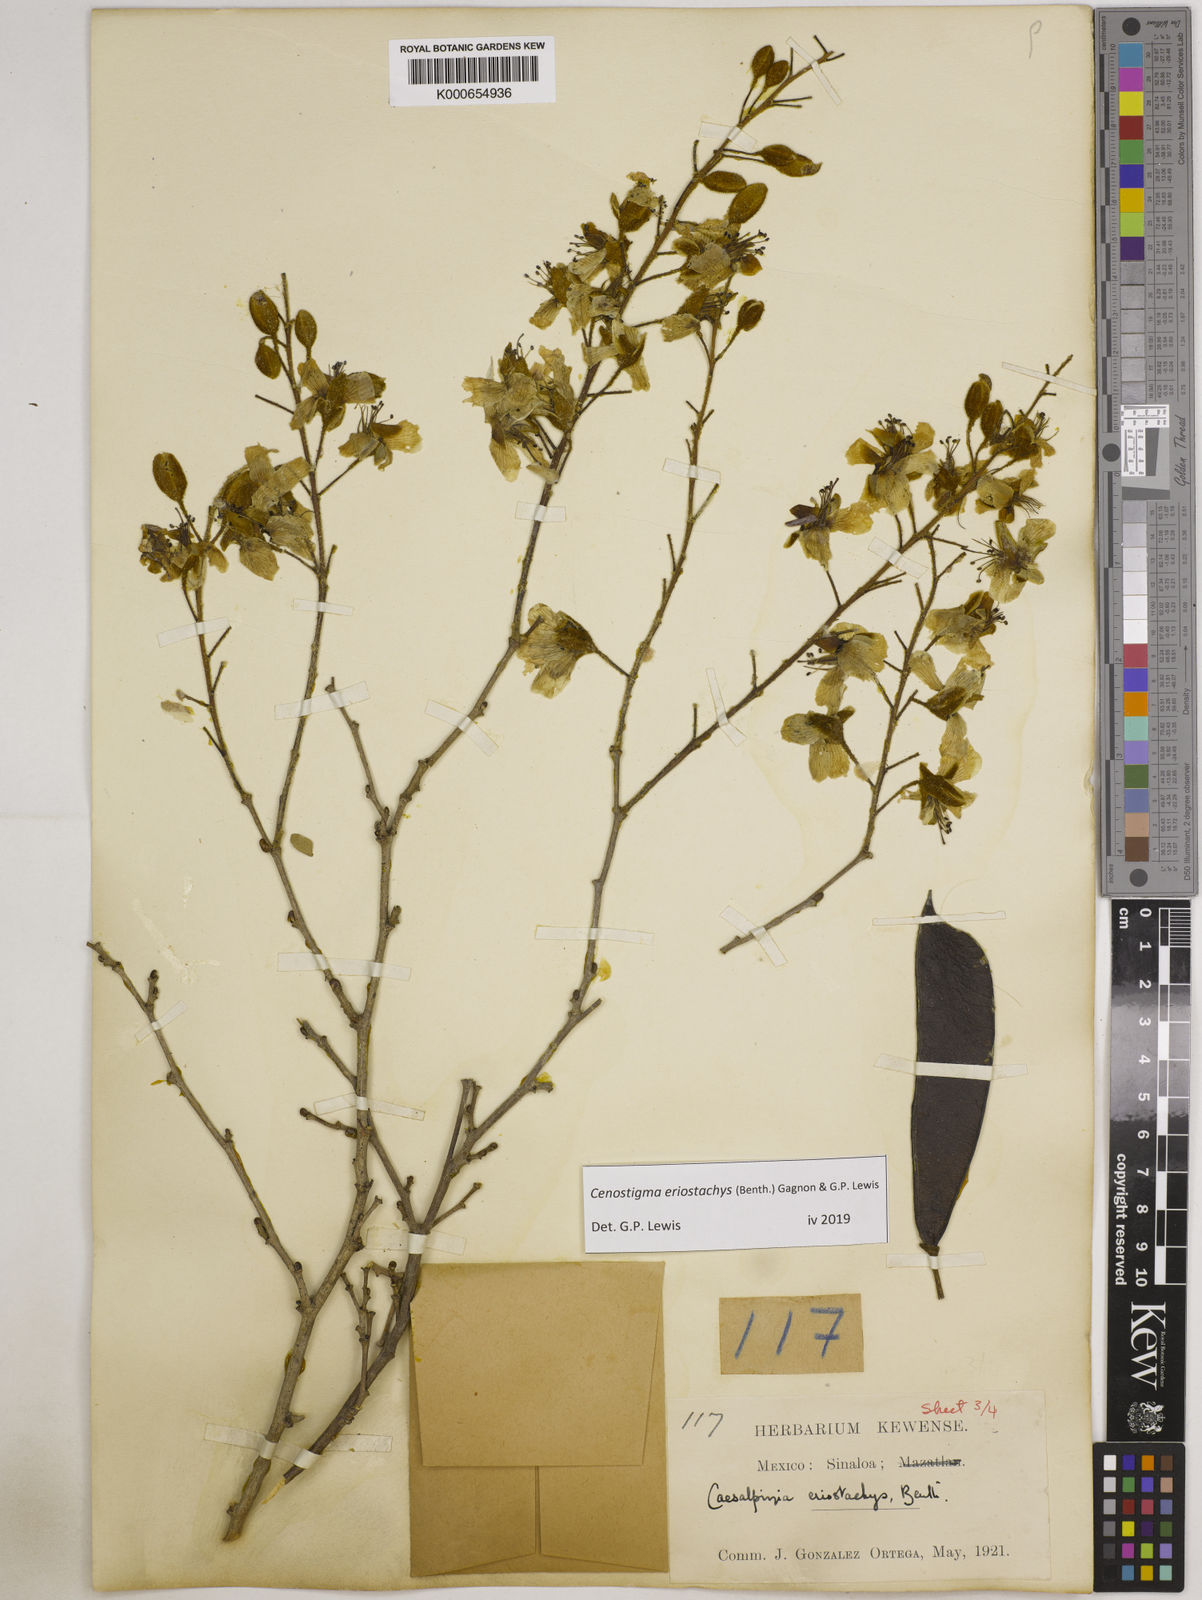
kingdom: Plantae
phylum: Tracheophyta
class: Magnoliopsida
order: Fabales
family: Fabaceae
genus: Cenostigma
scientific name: Cenostigma eriostachys
